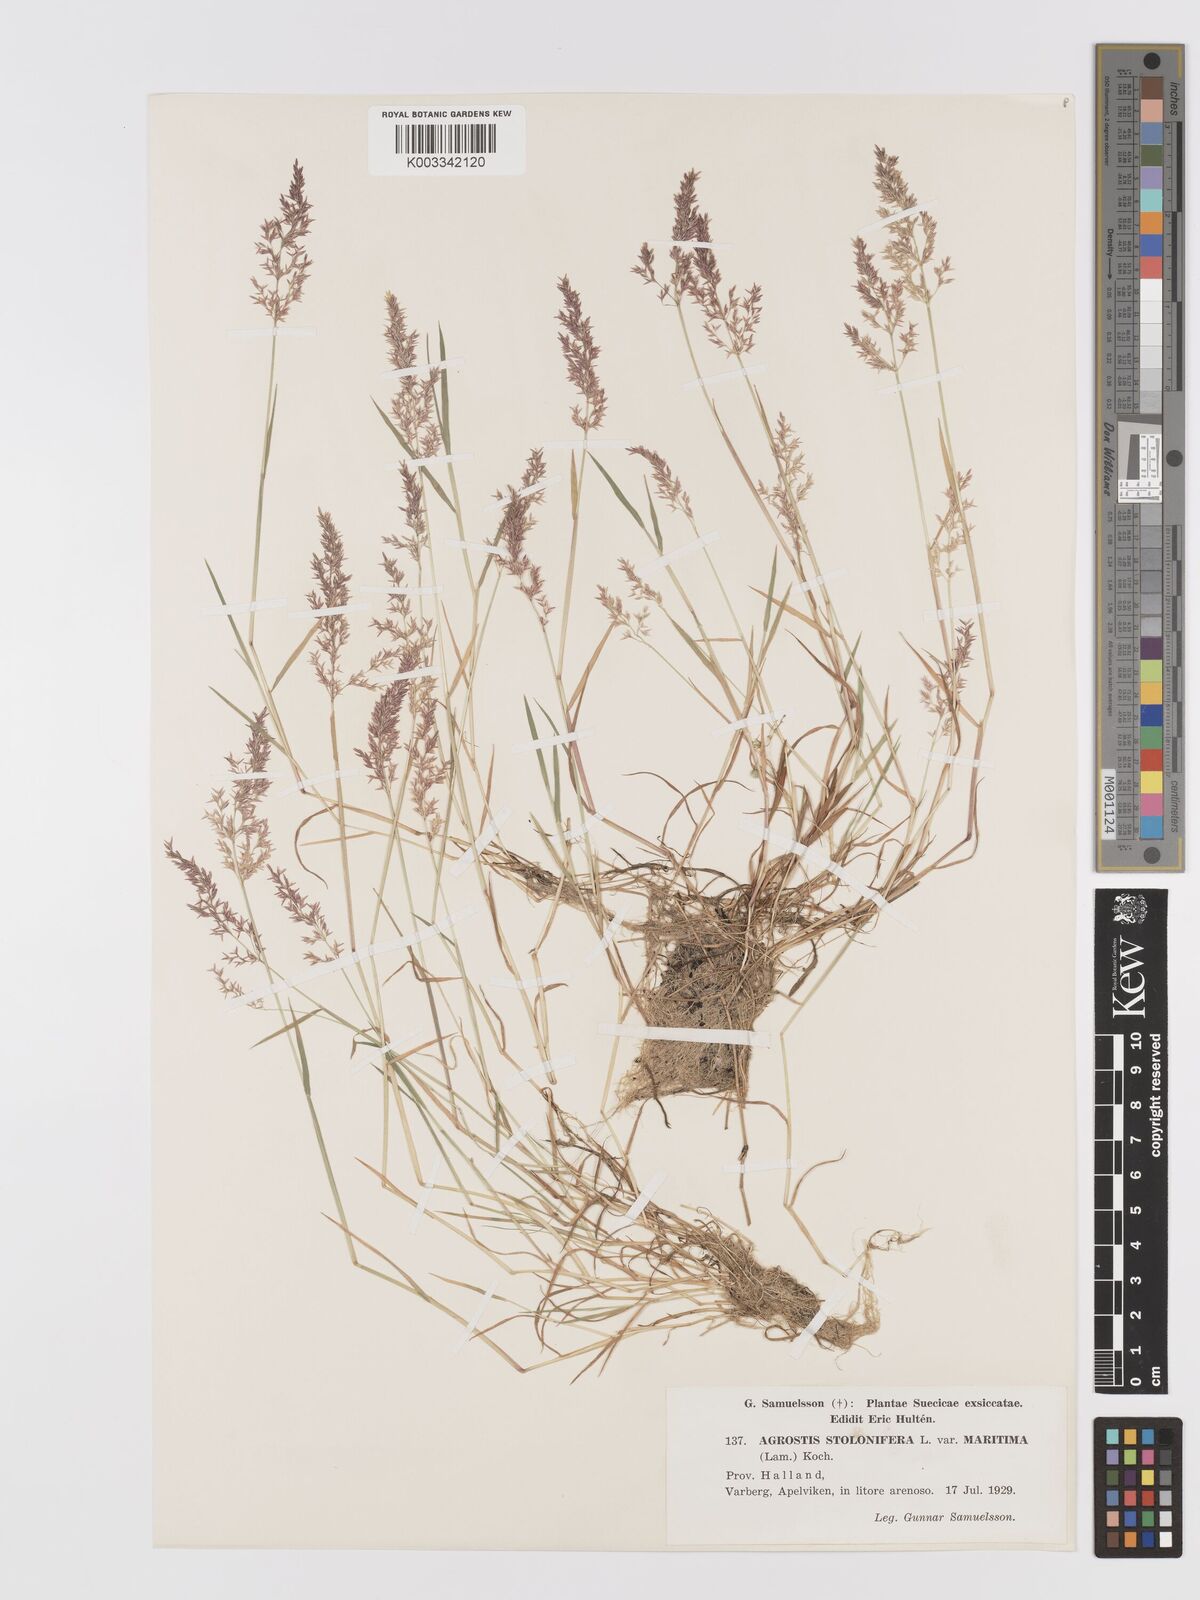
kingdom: Plantae
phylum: Tracheophyta
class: Liliopsida
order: Poales
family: Poaceae
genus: Agrostis
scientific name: Agrostis stolonifera
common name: Creeping bentgrass
